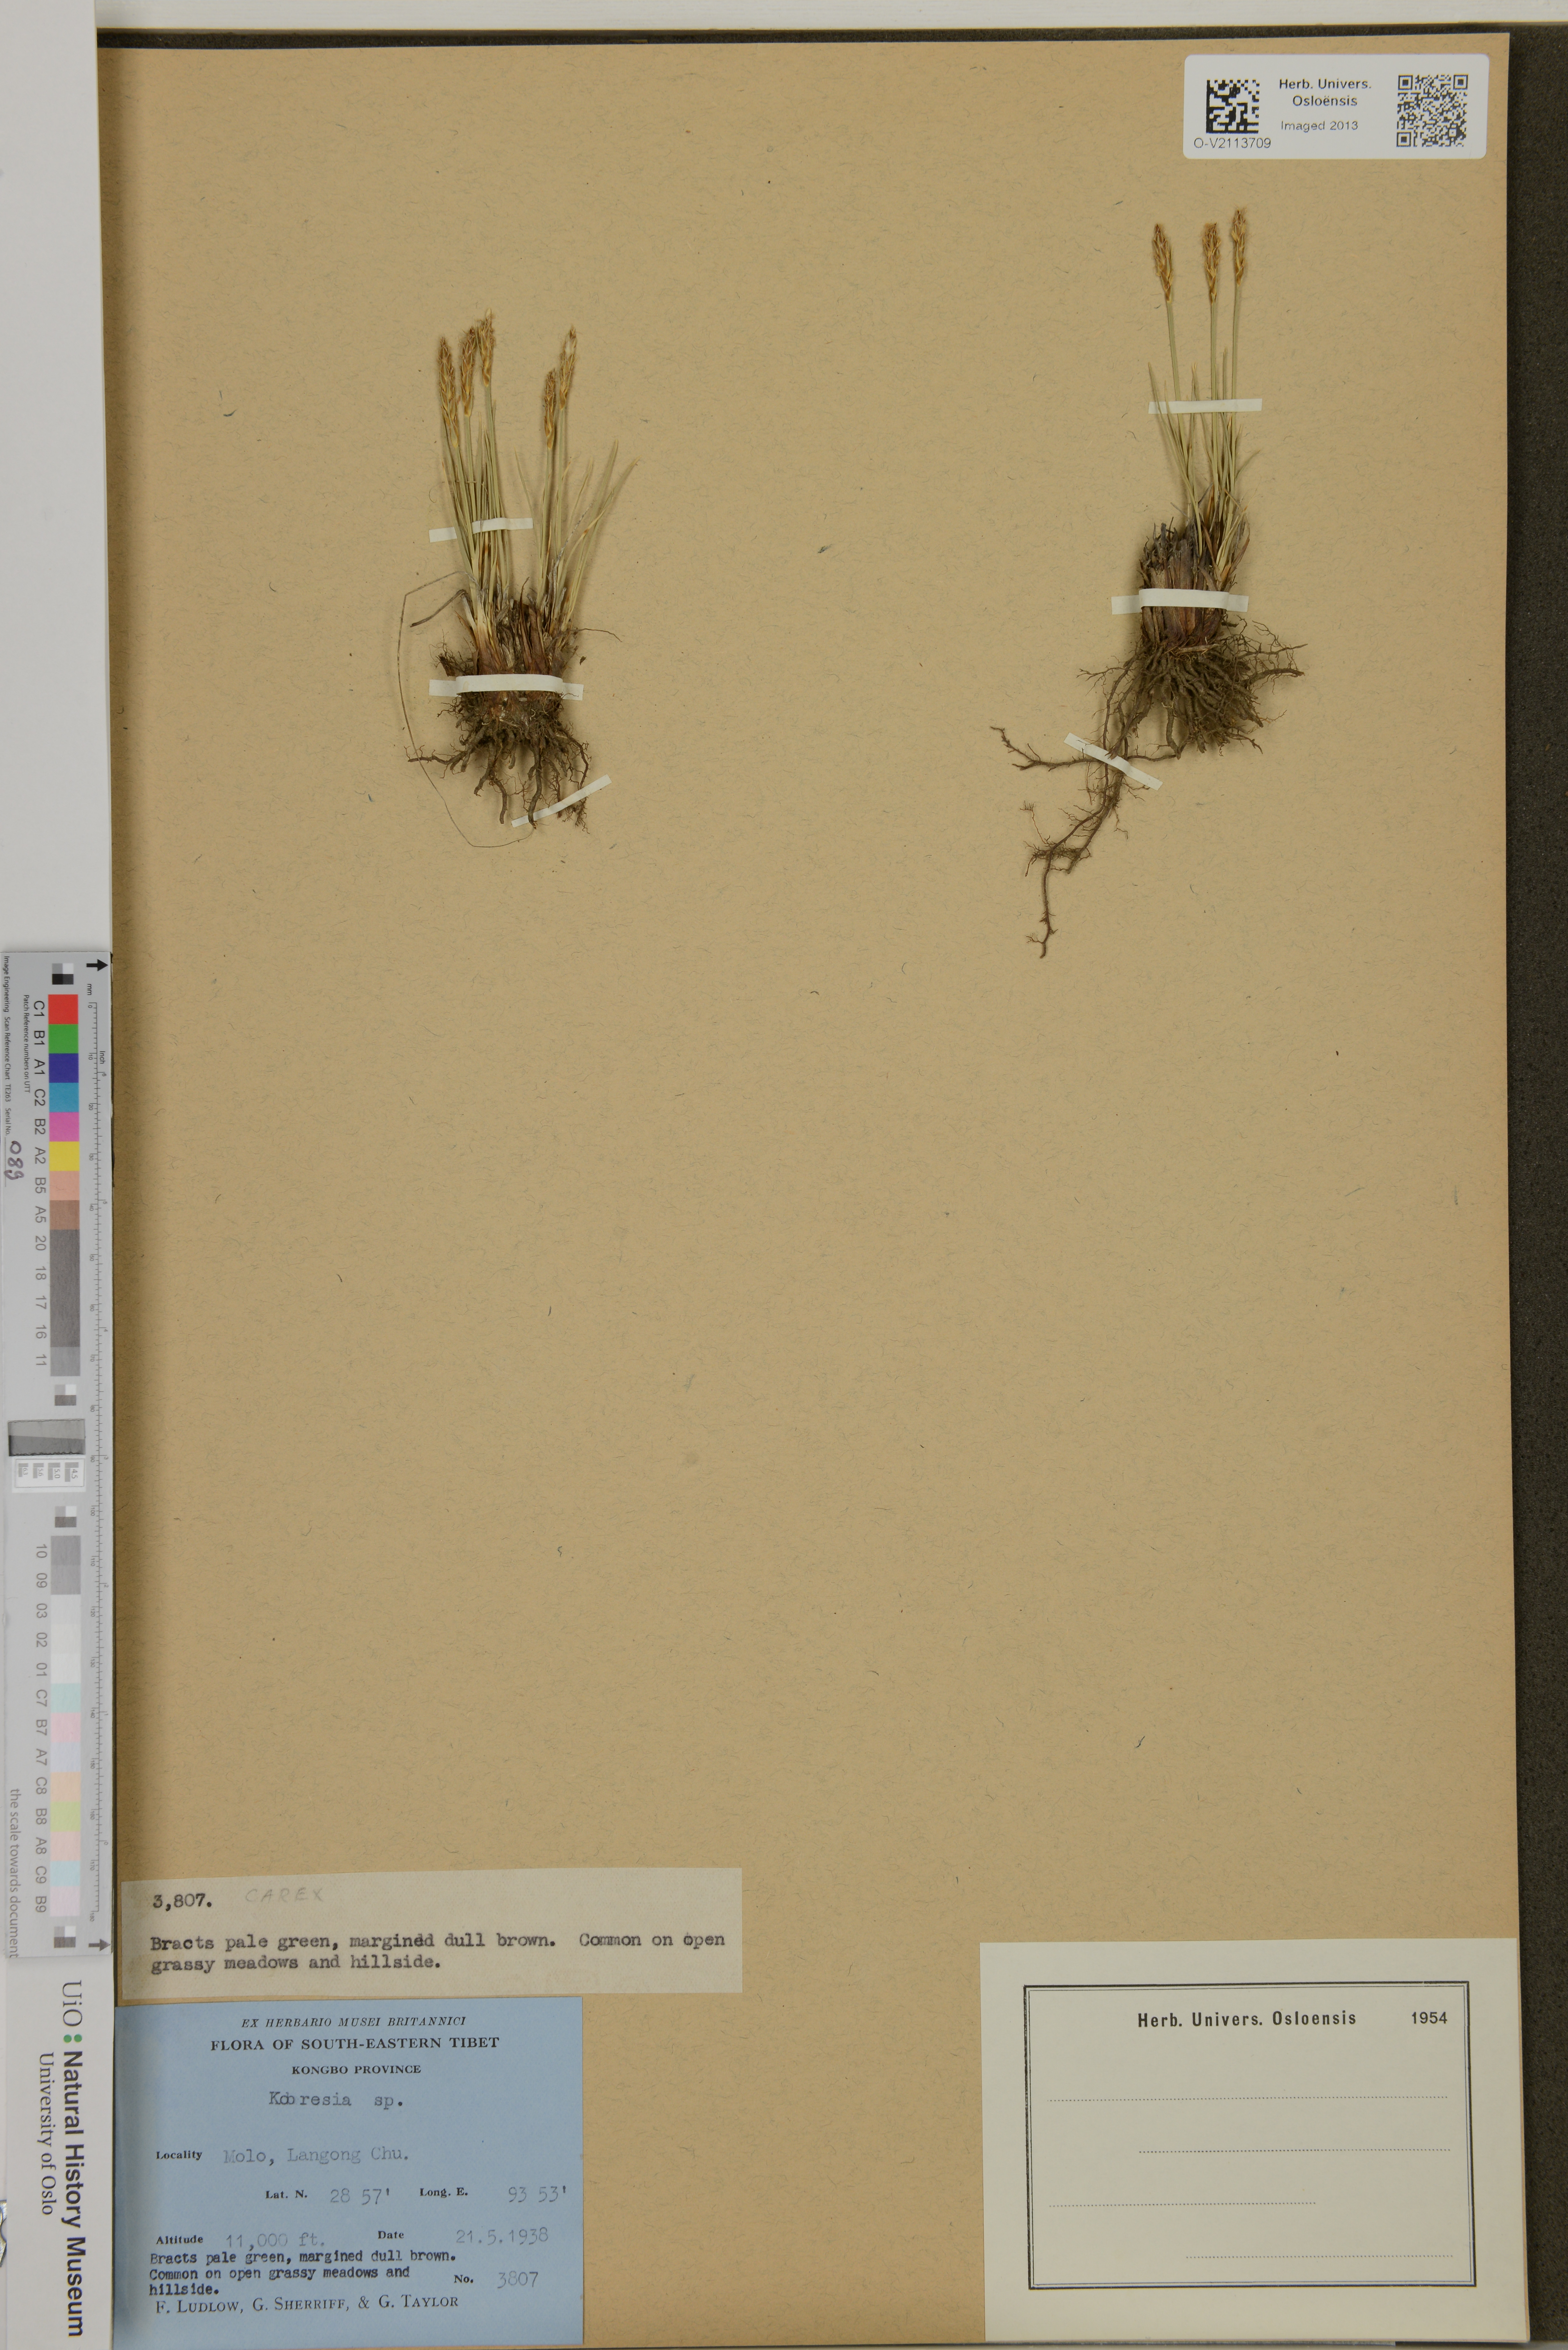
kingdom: Plantae
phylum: Tracheophyta
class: Liliopsida
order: Poales
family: Cyperaceae
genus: Carex
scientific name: Carex
